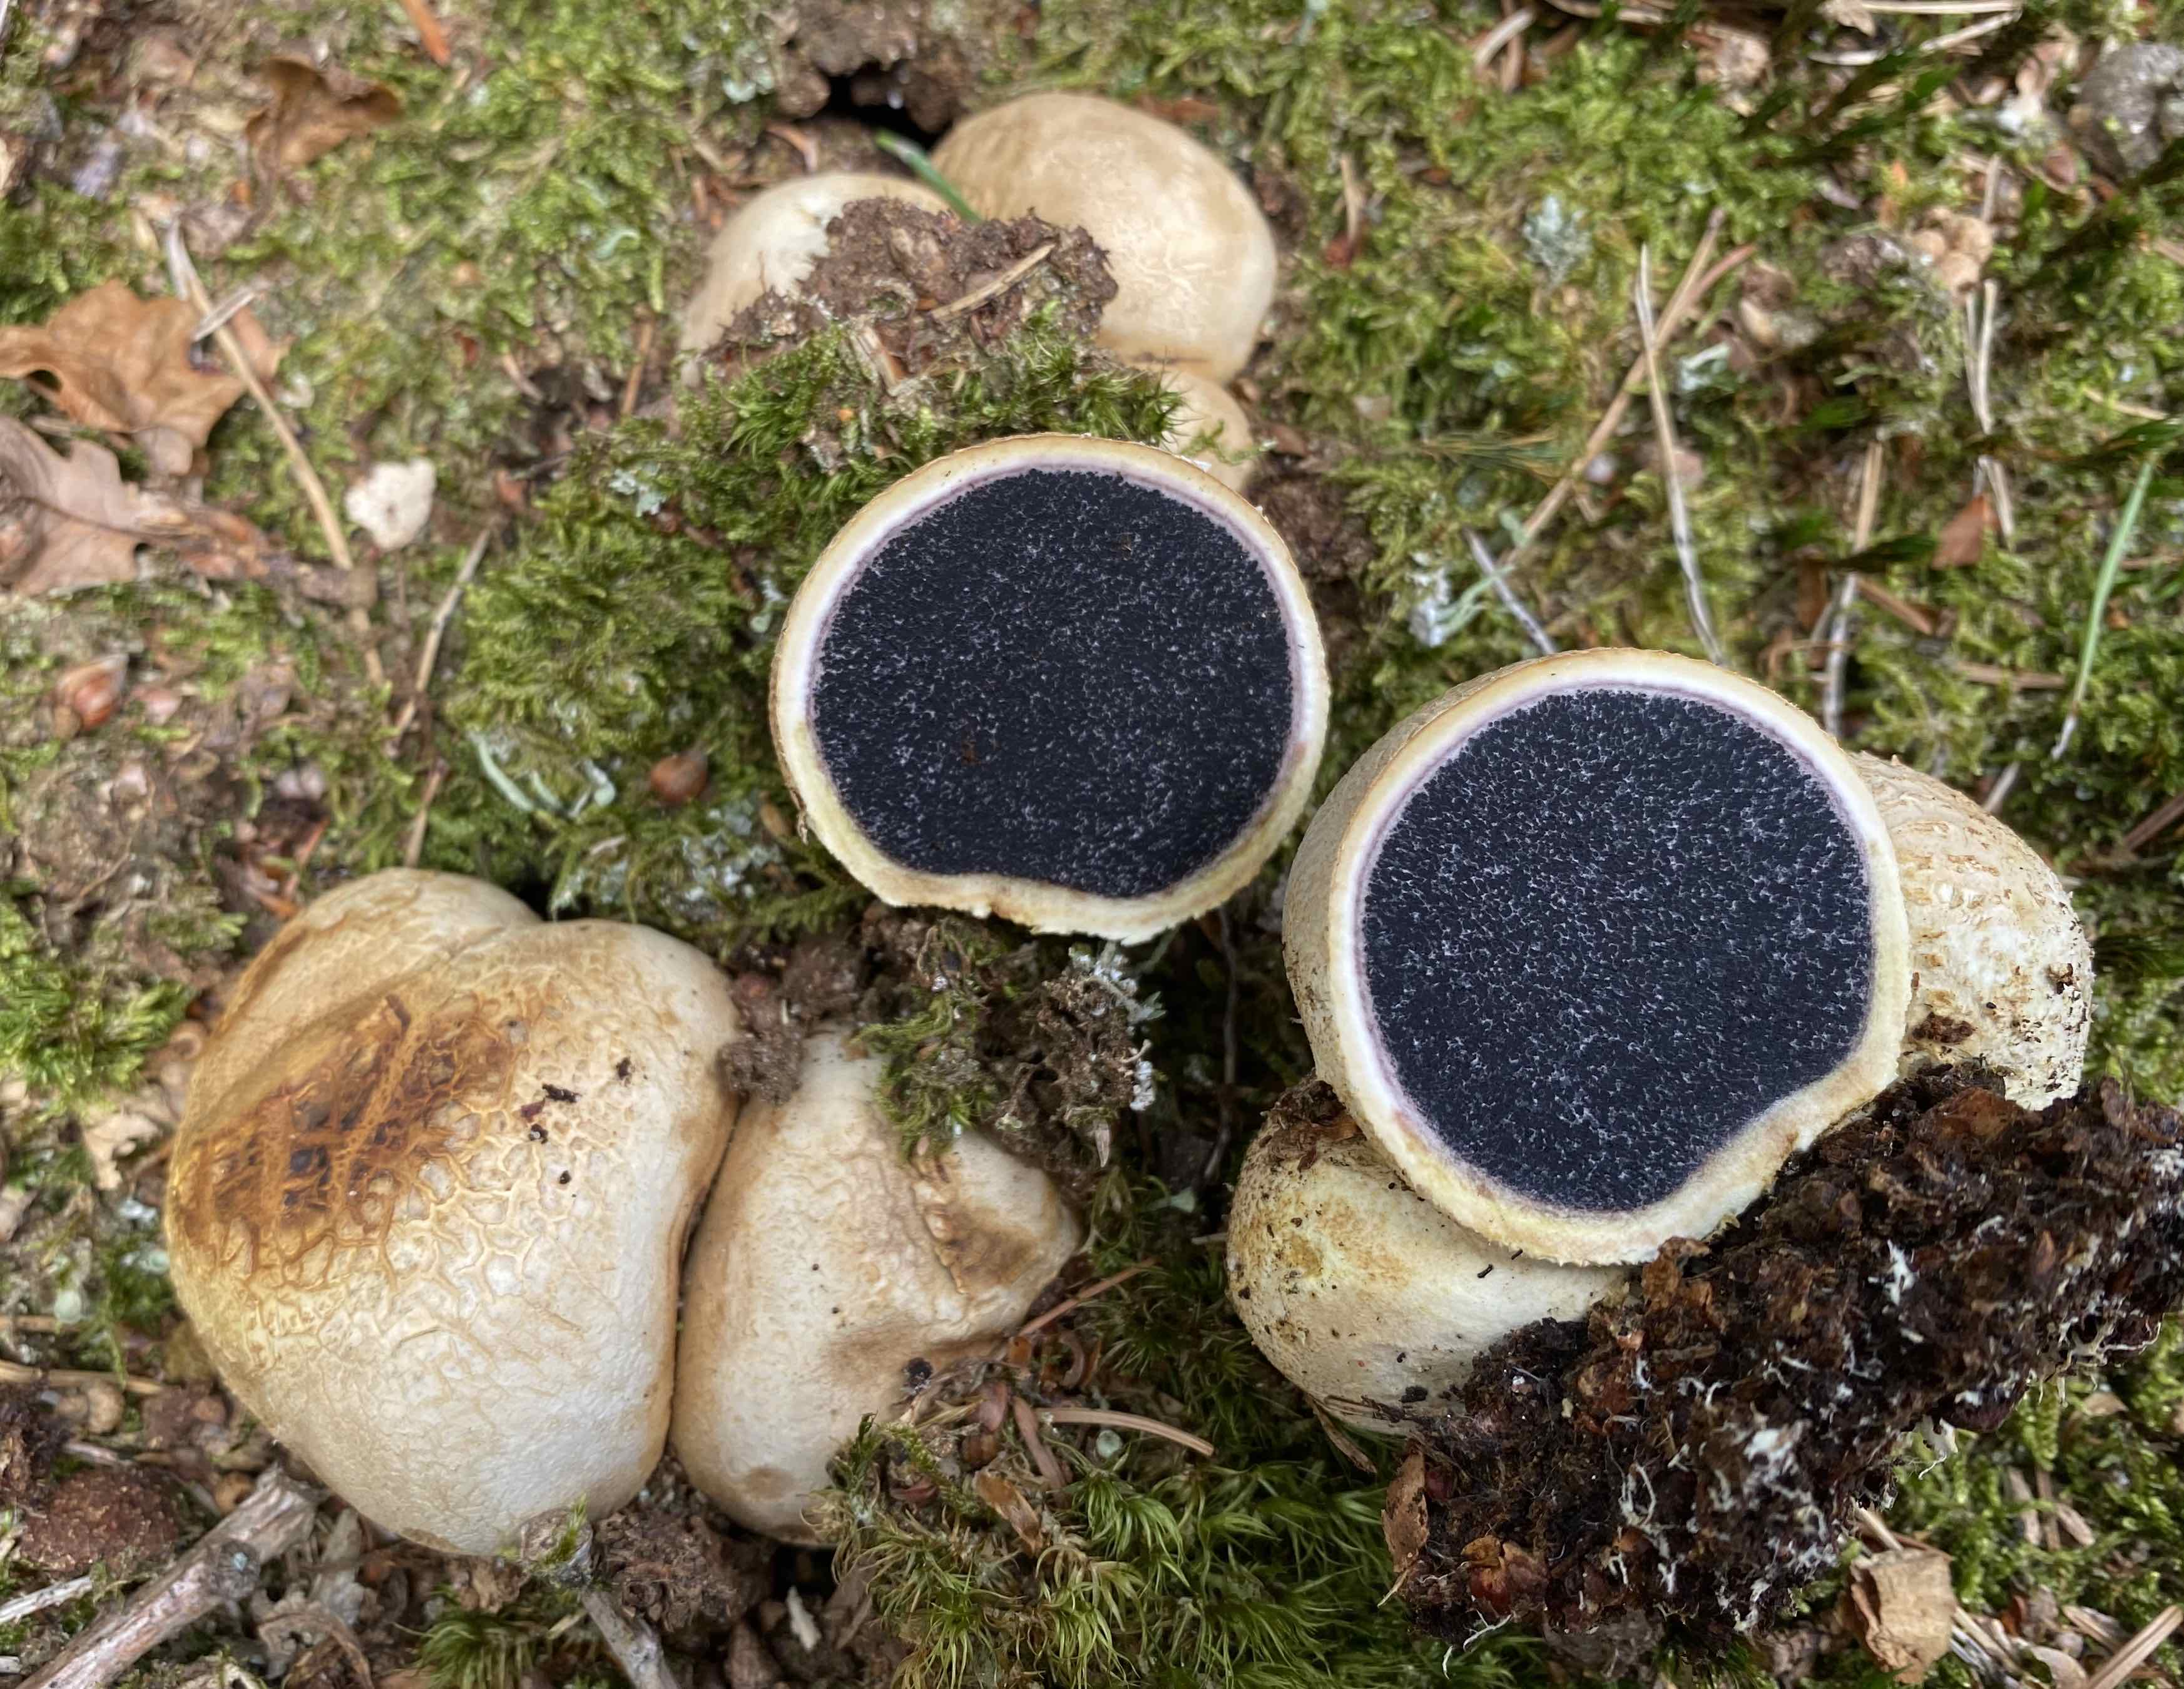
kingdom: Fungi
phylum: Basidiomycota
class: Agaricomycetes
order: Boletales
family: Sclerodermataceae
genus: Scleroderma
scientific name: Scleroderma citrinum
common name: almindelig bruskbold
